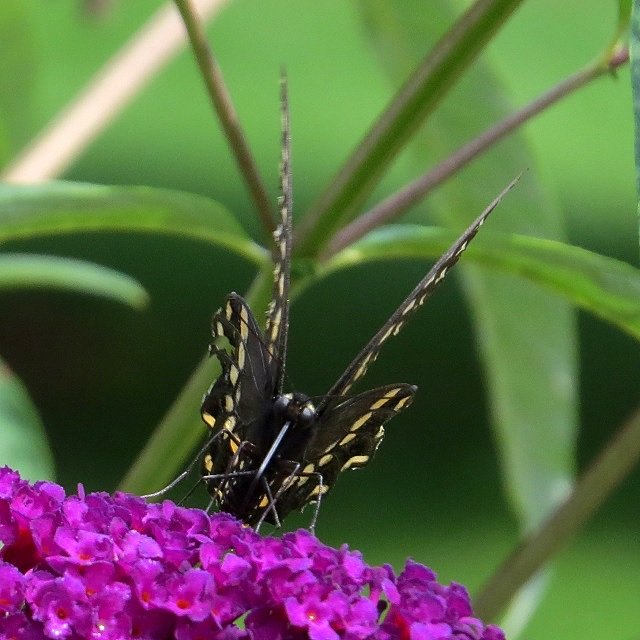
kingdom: Animalia
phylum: Arthropoda
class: Insecta
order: Lepidoptera
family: Papilionidae
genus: Papilio
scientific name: Papilio polyxenes
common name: Black Swallowtail
